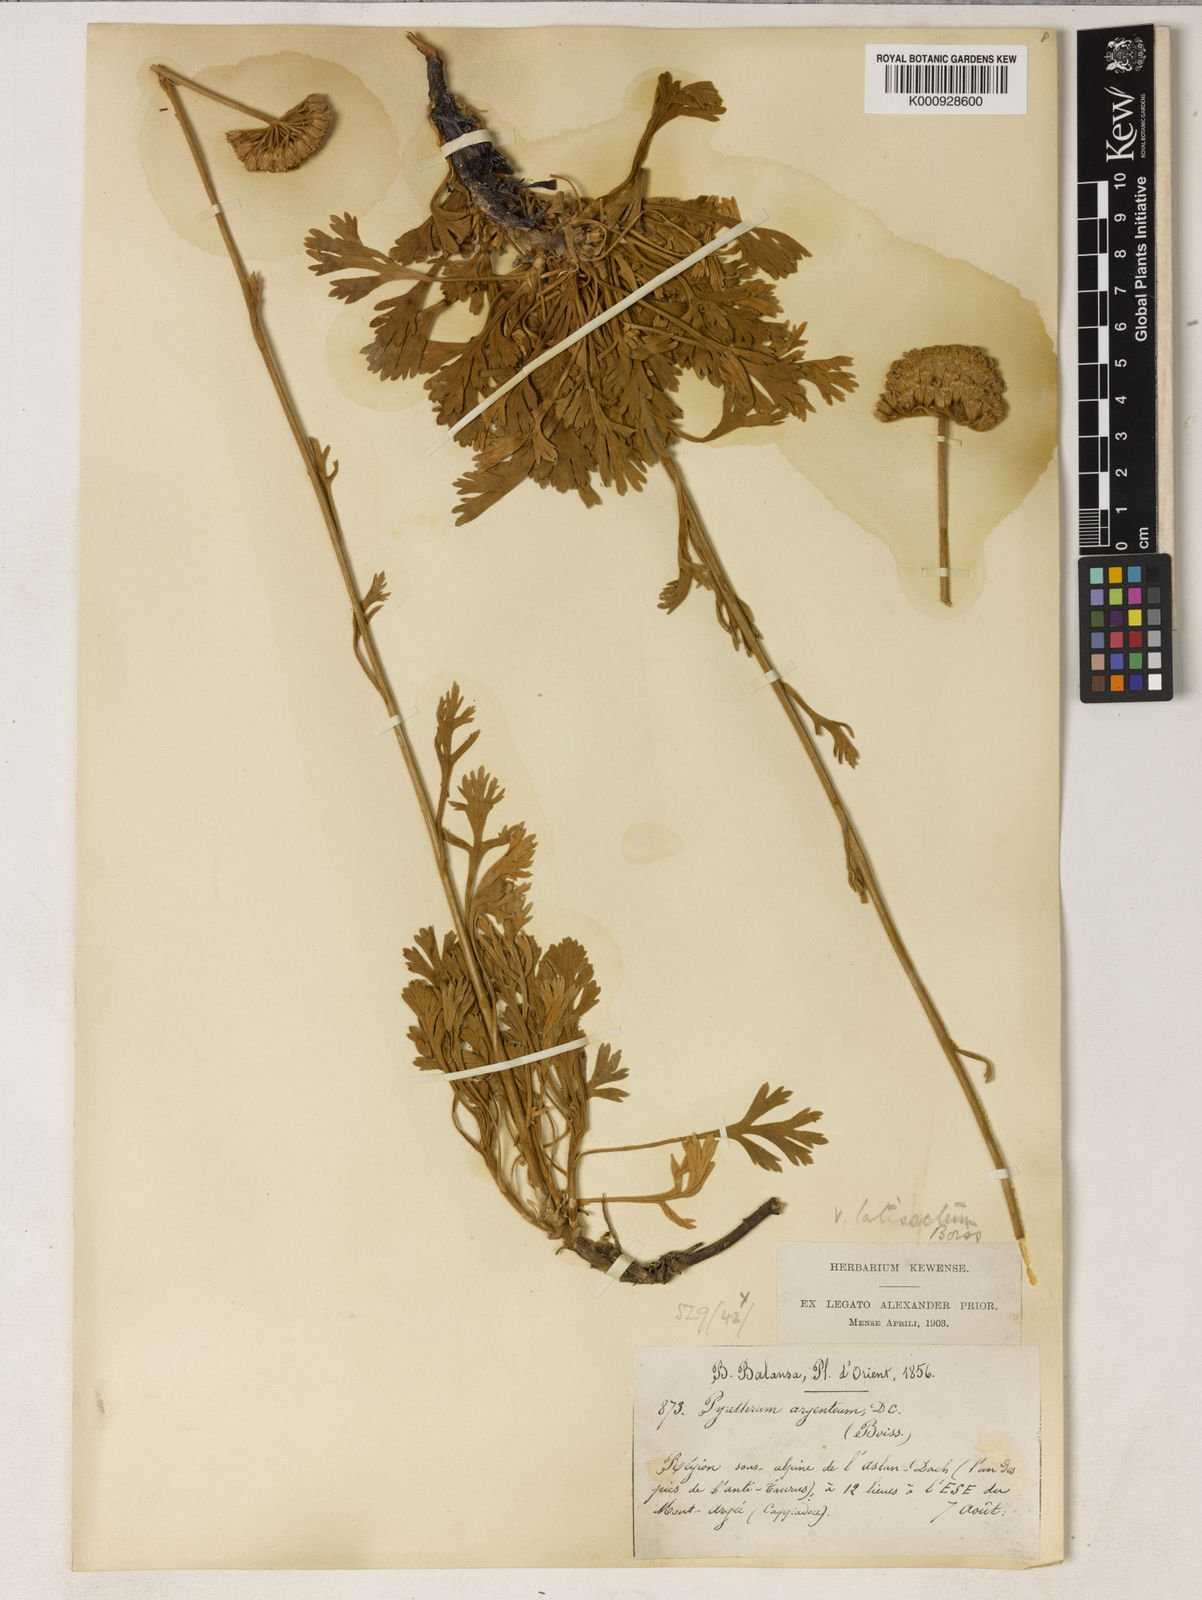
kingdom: Plantae
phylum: Tracheophyta
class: Magnoliopsida
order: Asterales
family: Asteraceae
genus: Tanacetum
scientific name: Tanacetum argenteum
